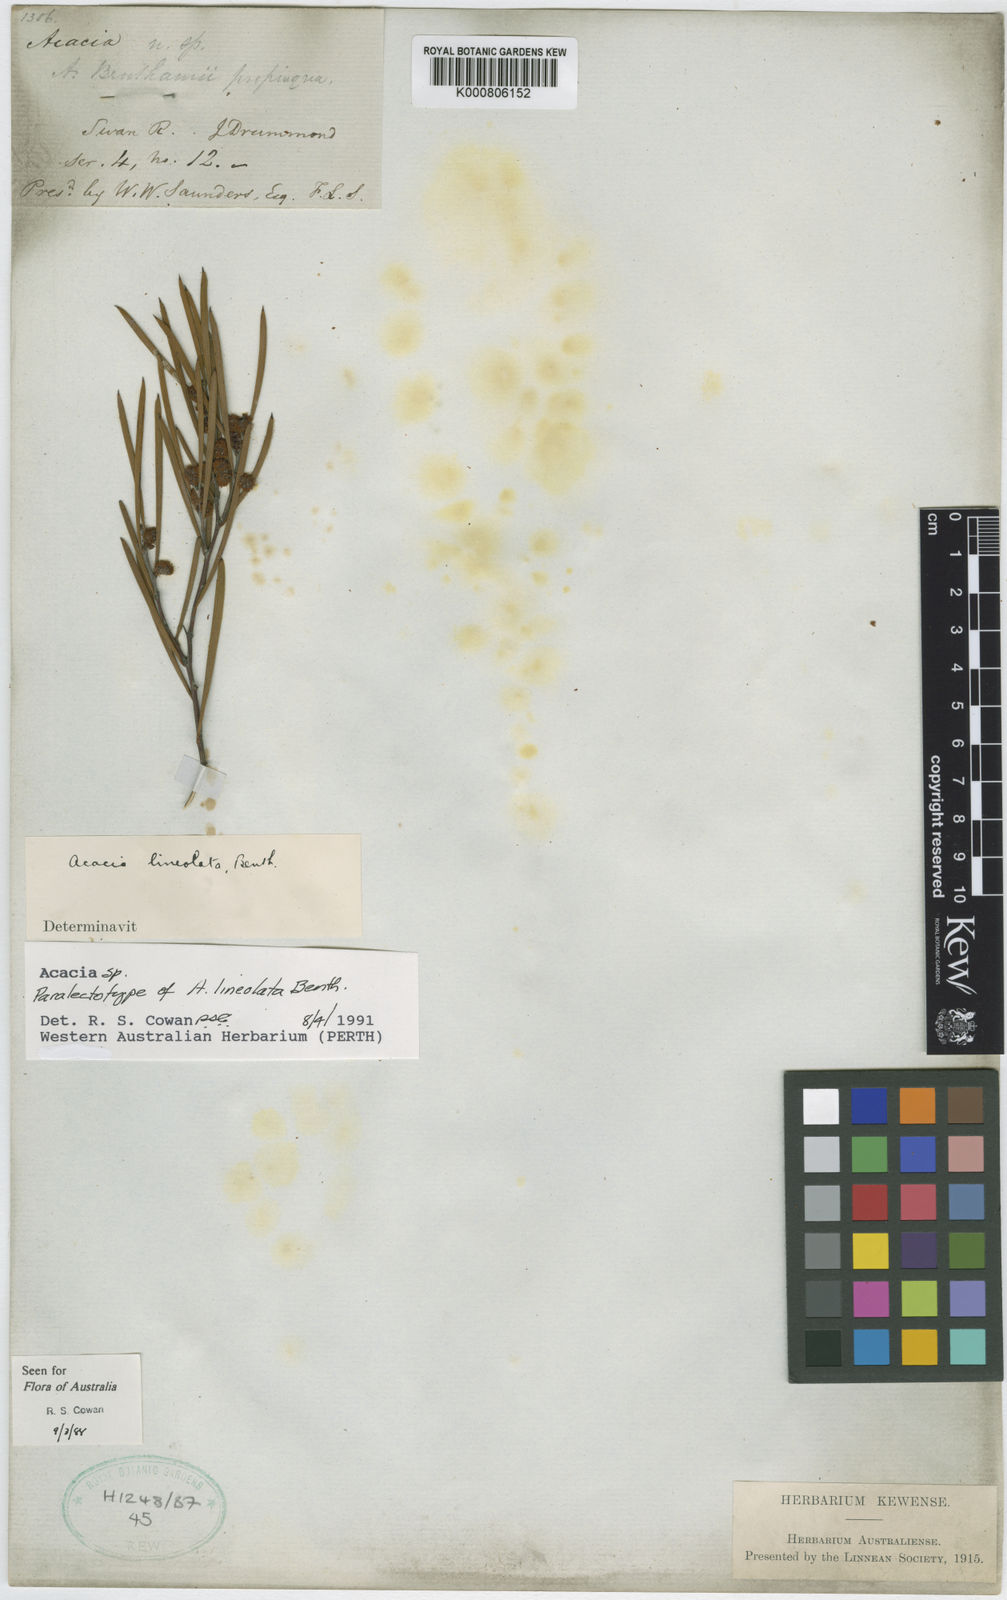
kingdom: Plantae
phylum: Tracheophyta
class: Magnoliopsida
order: Fabales
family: Fabaceae
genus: Acacia
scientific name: Acacia lineolata
